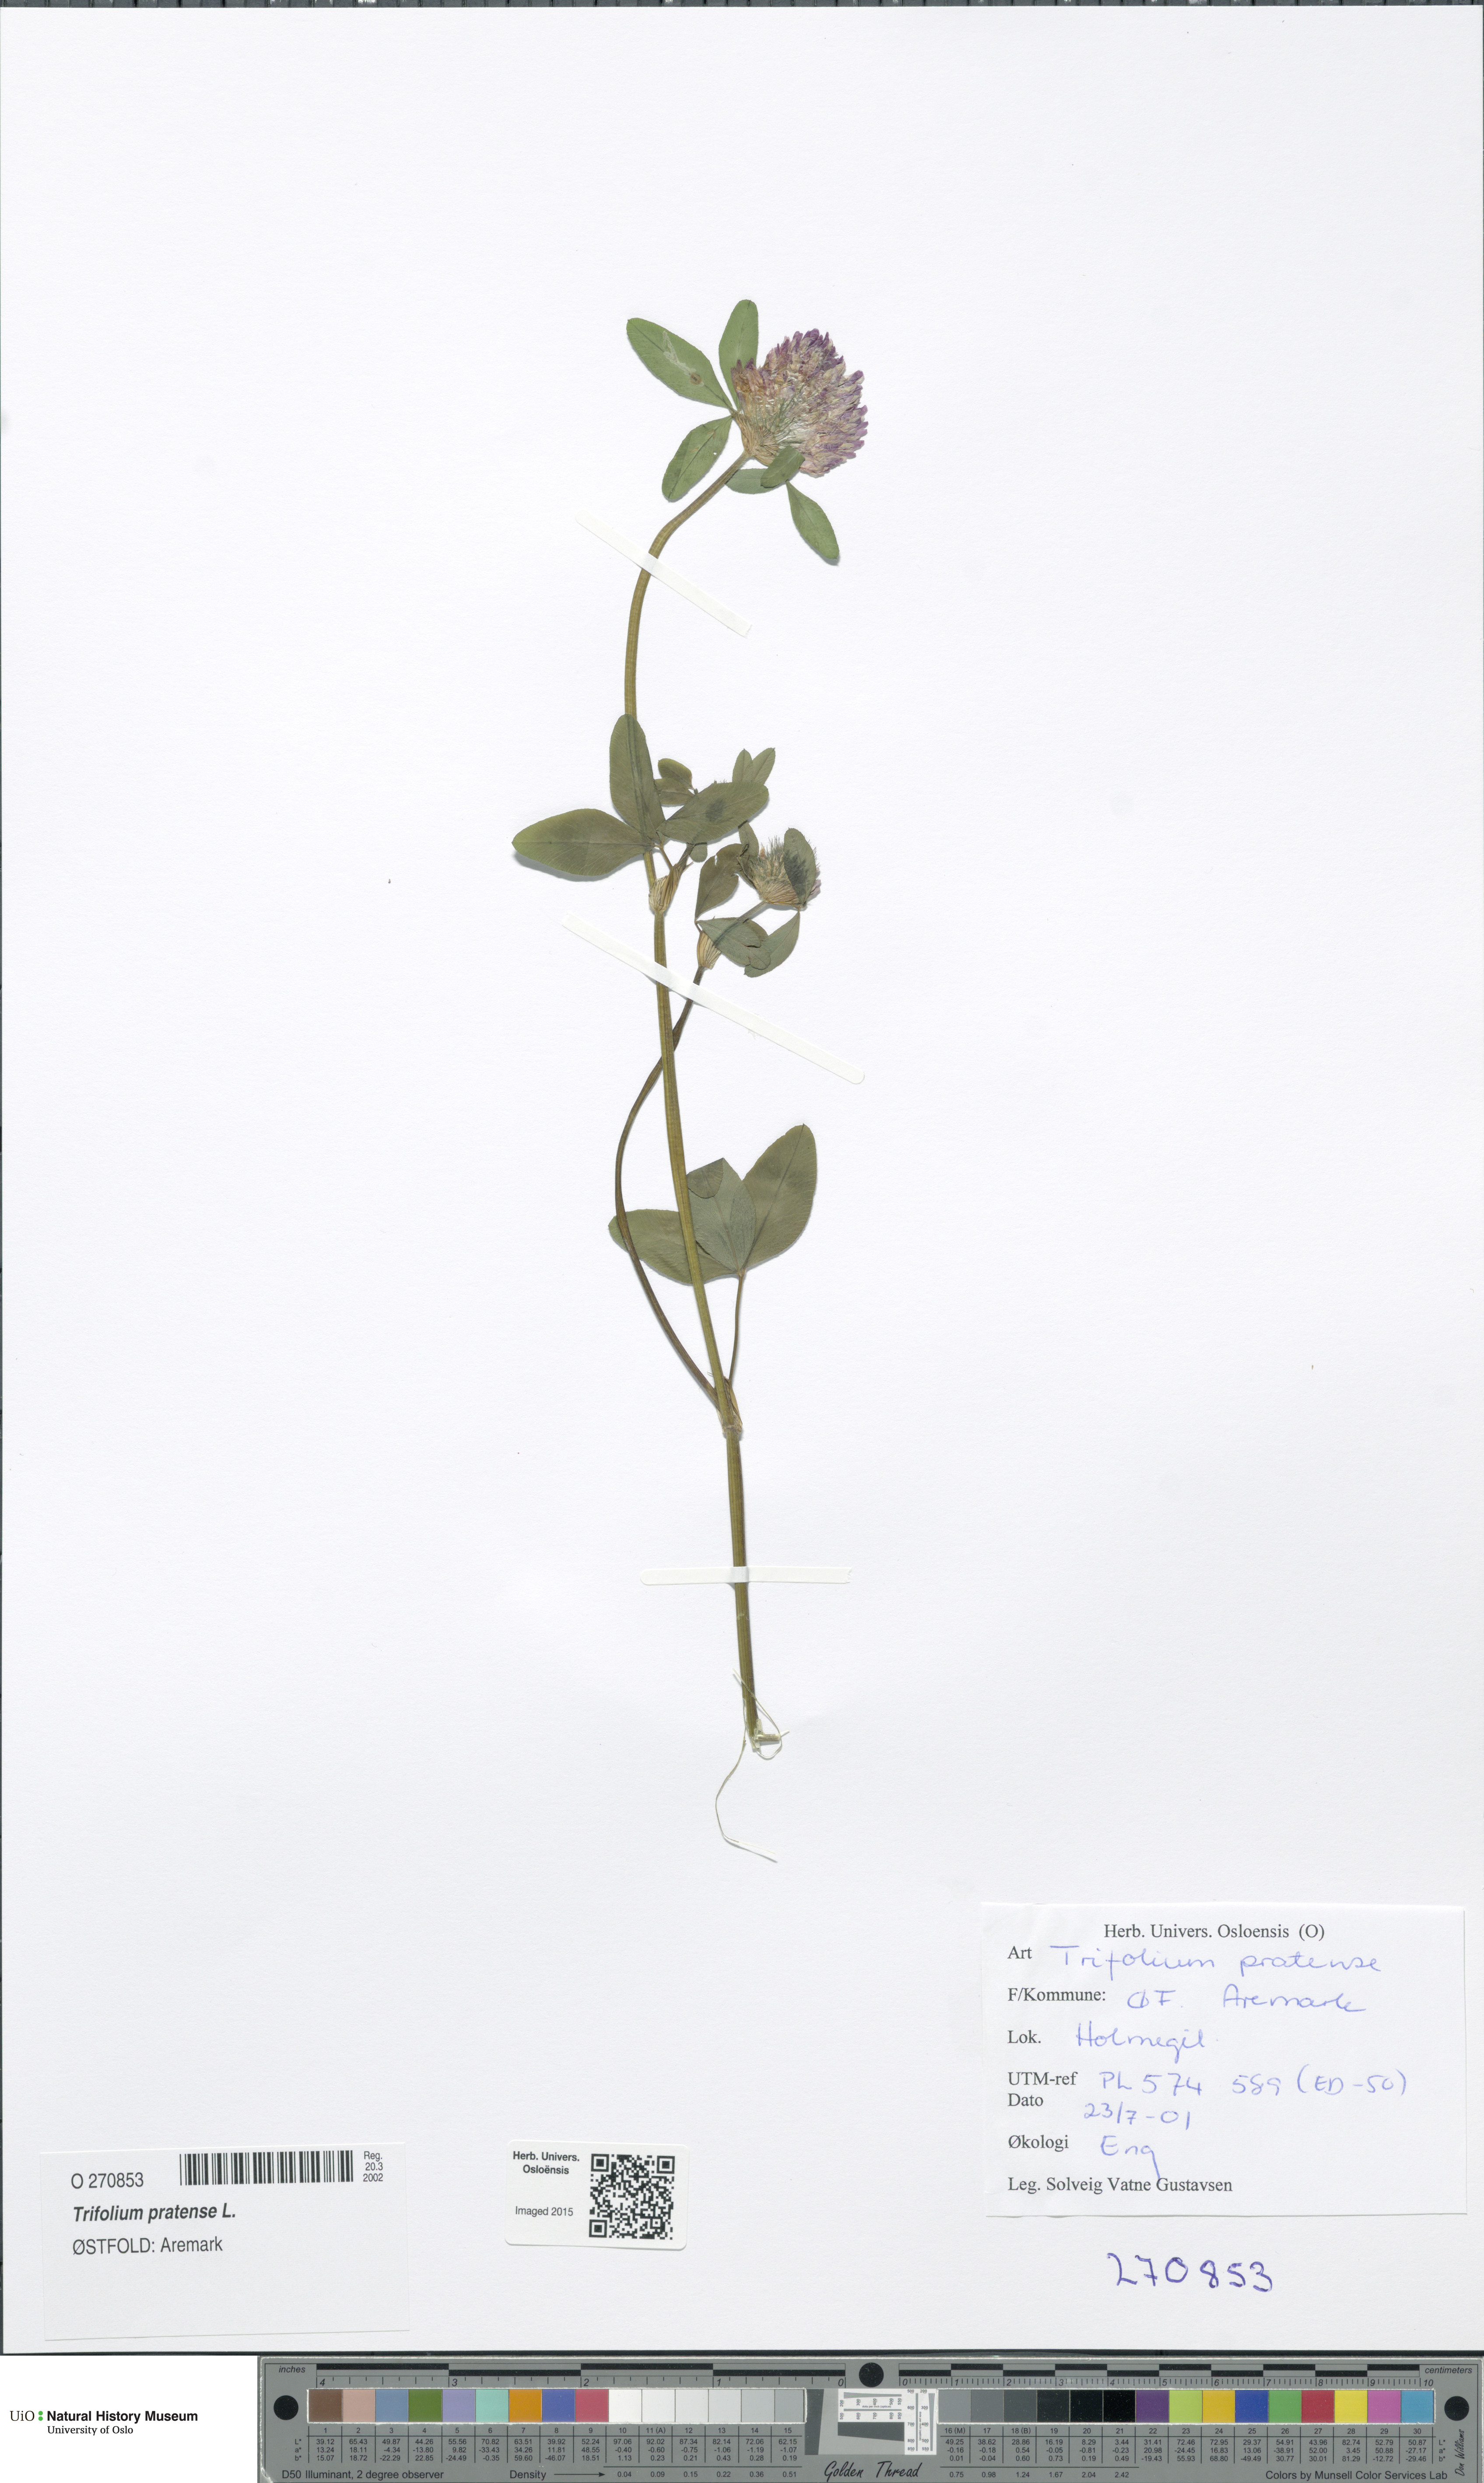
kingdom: Plantae
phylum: Tracheophyta
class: Magnoliopsida
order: Fabales
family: Fabaceae
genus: Trifolium
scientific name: Trifolium pratense
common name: Red clover
